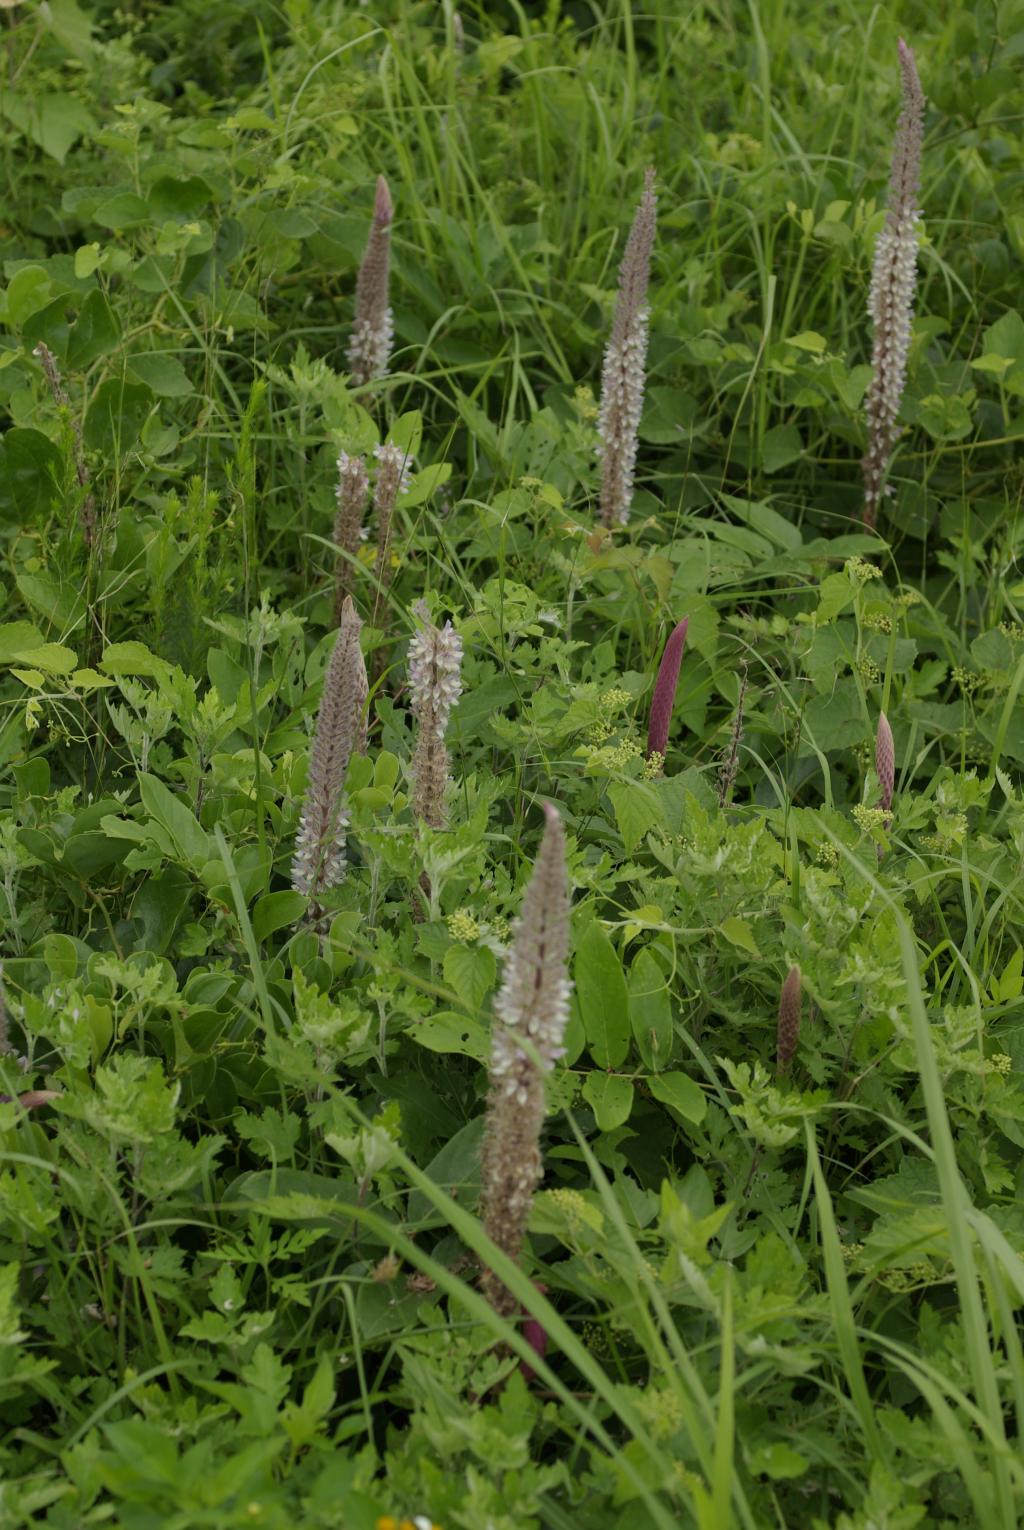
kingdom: Plantae
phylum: Tracheophyta
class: Magnoliopsida
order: Fabales
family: Fabaceae
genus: Uraria
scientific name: Uraria crinita
